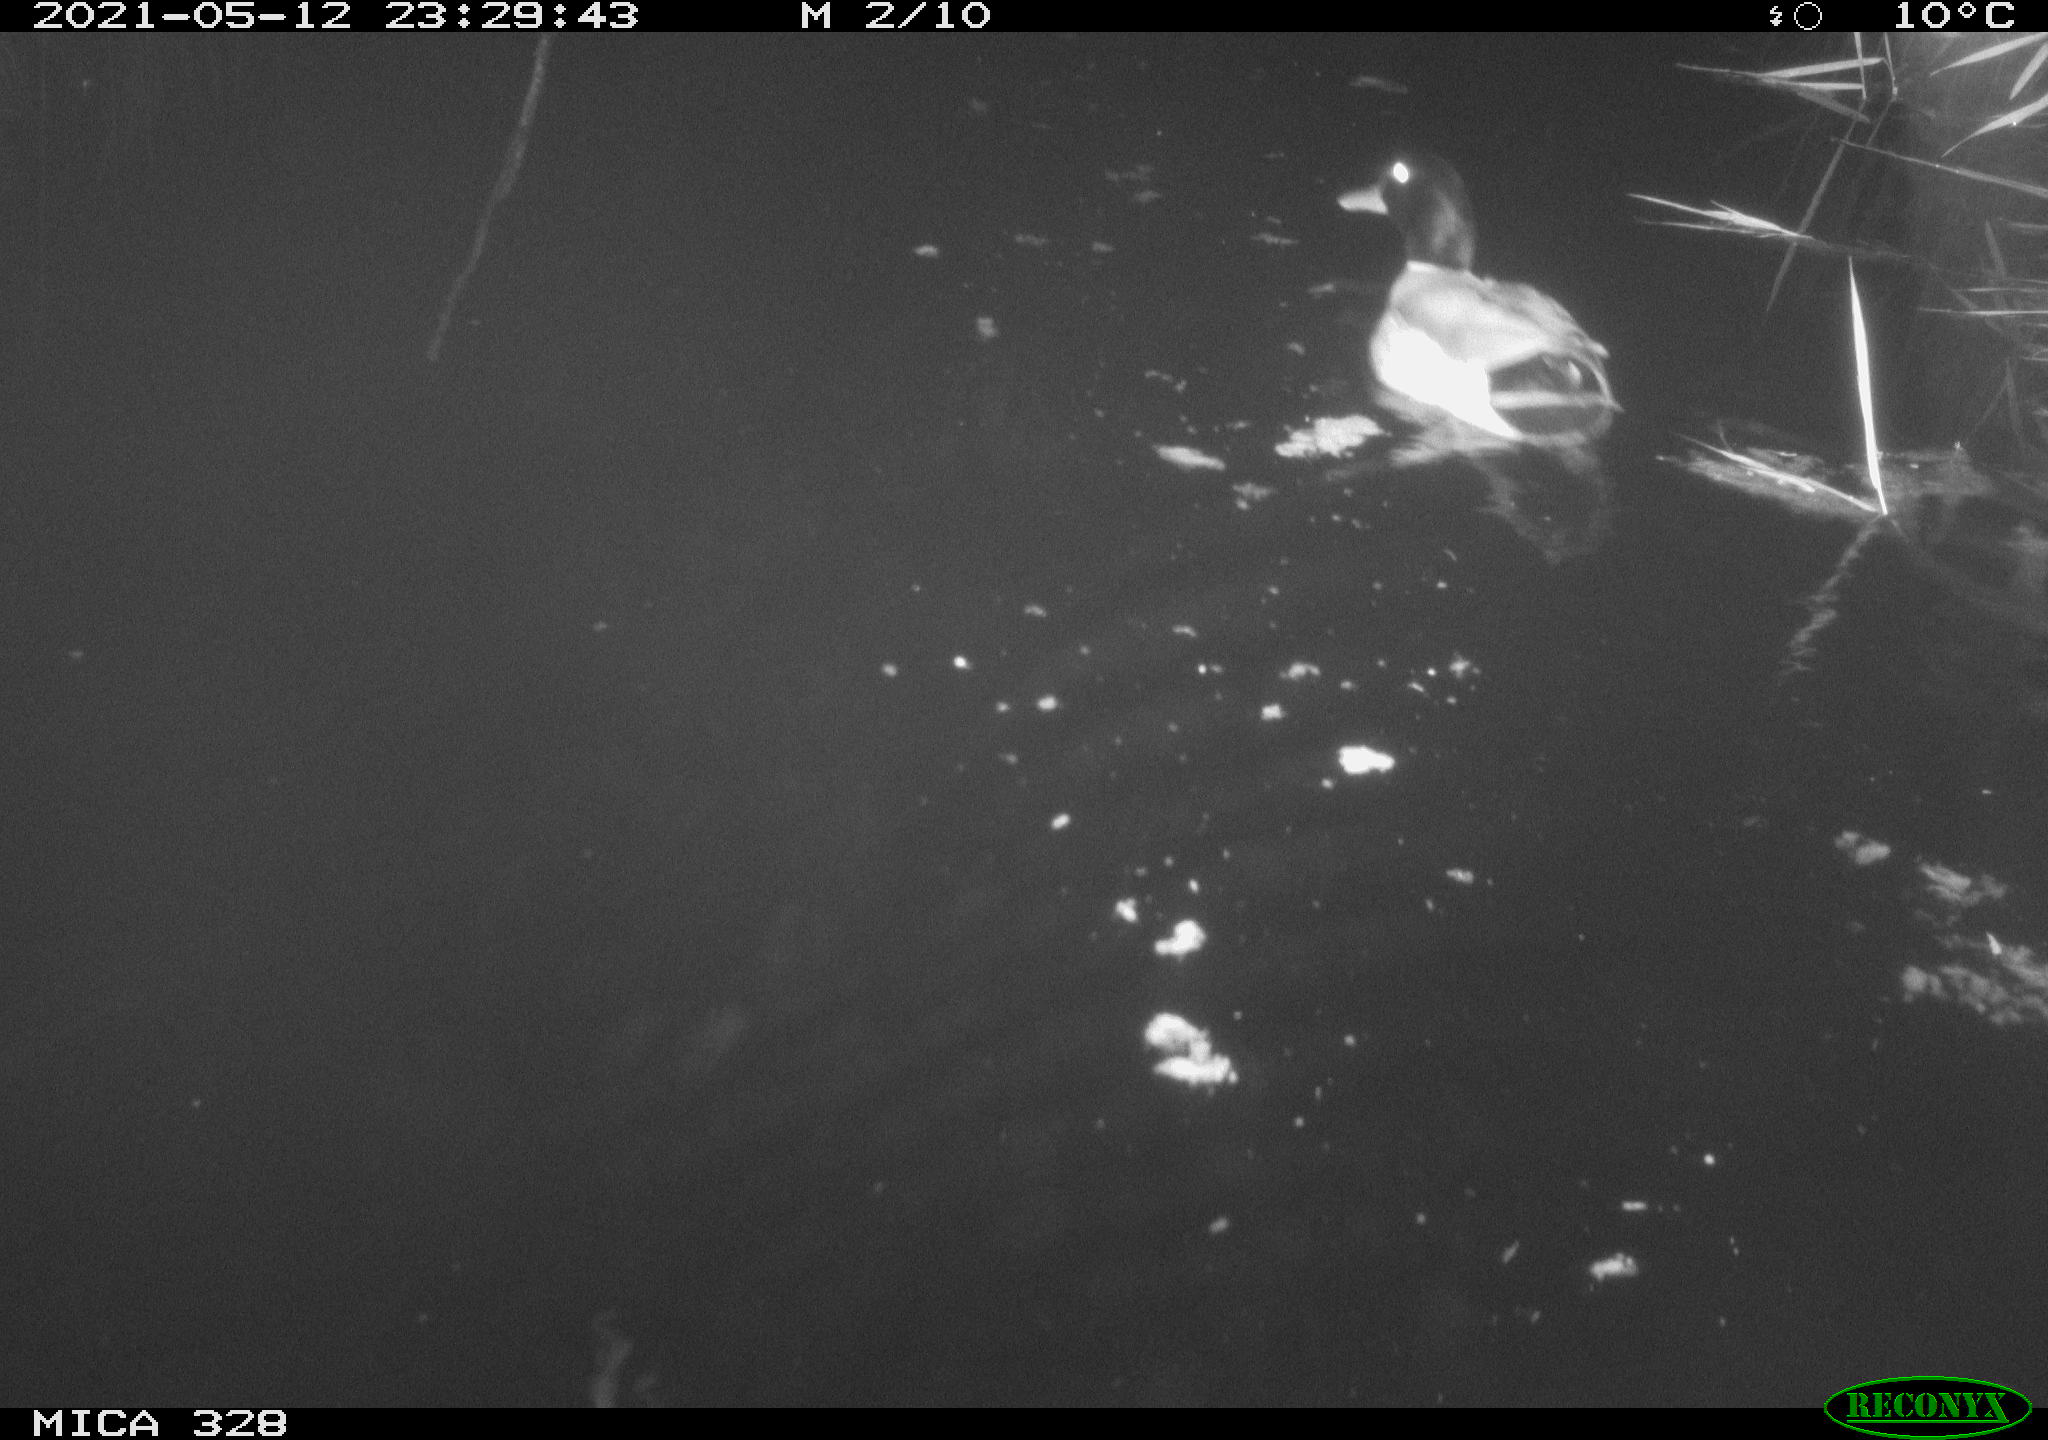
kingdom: Animalia
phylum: Chordata
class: Aves
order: Anseriformes
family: Anatidae
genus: Anas
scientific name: Anas platyrhynchos
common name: Mallard
